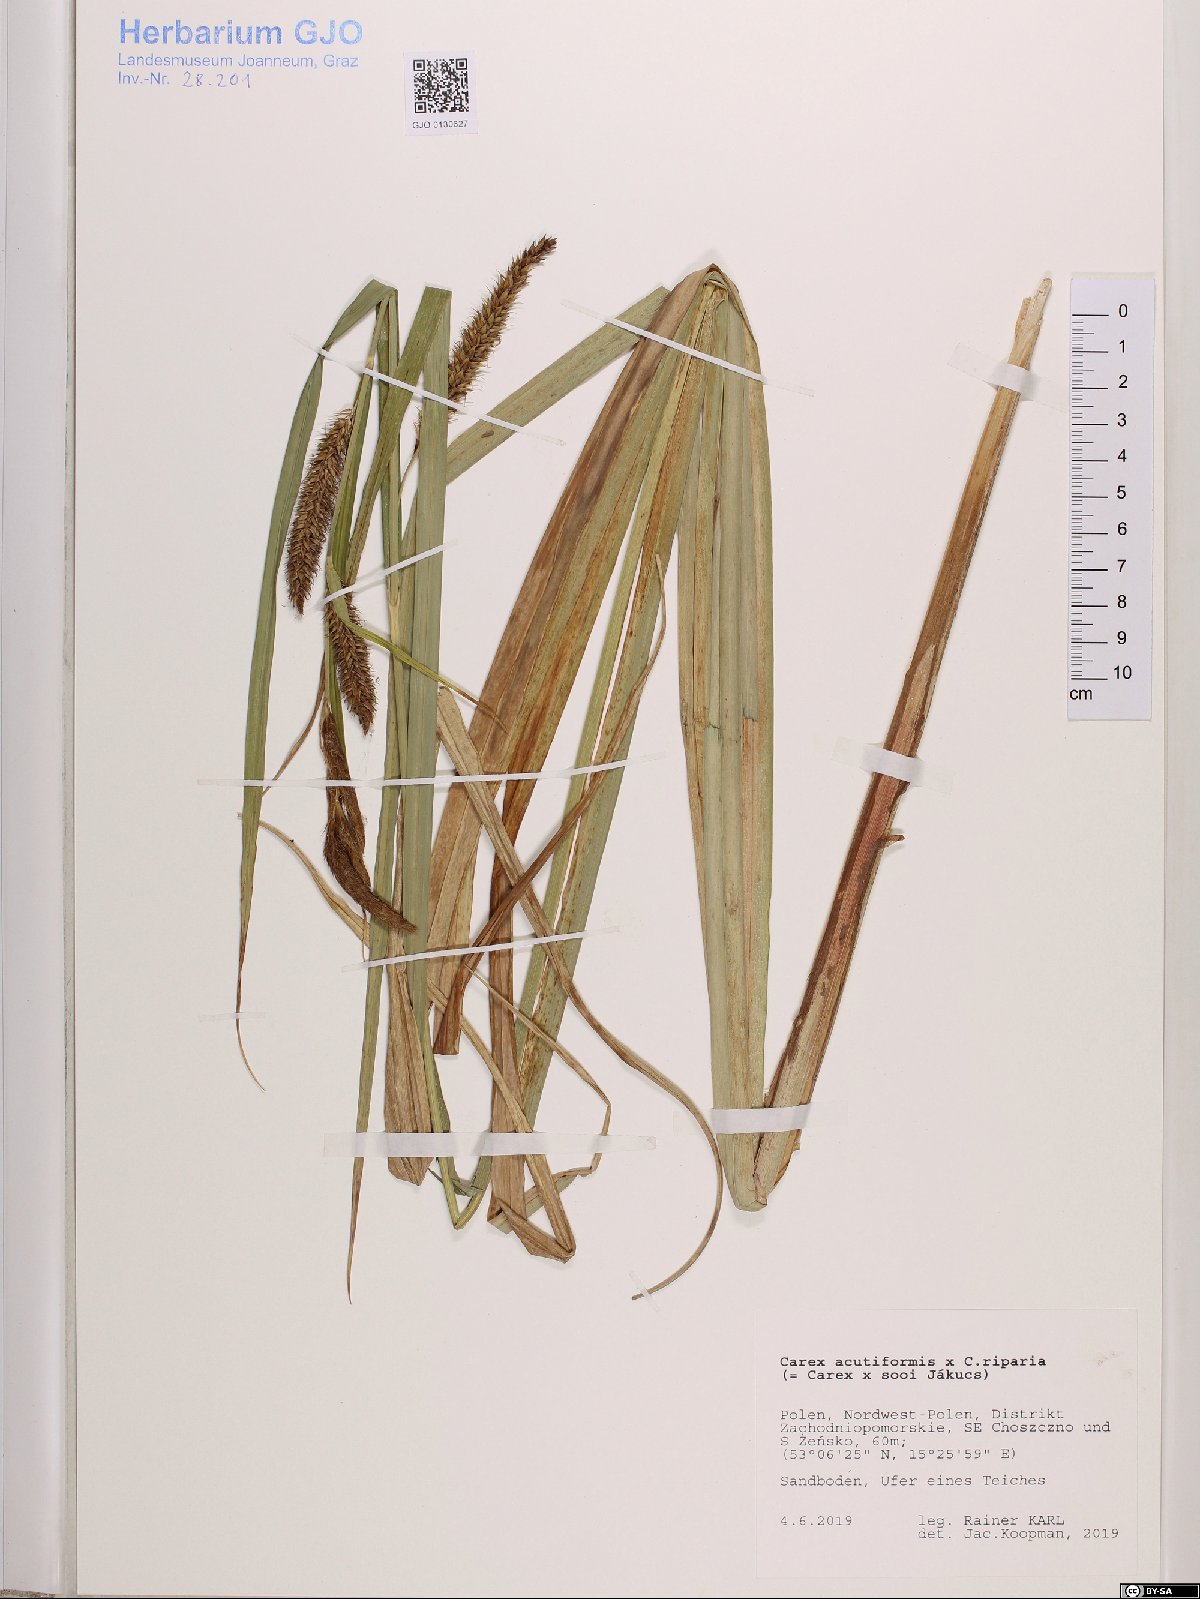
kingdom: Plantae
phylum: Tracheophyta
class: Liliopsida
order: Poales
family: Cyperaceae
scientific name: Cyperaceae
